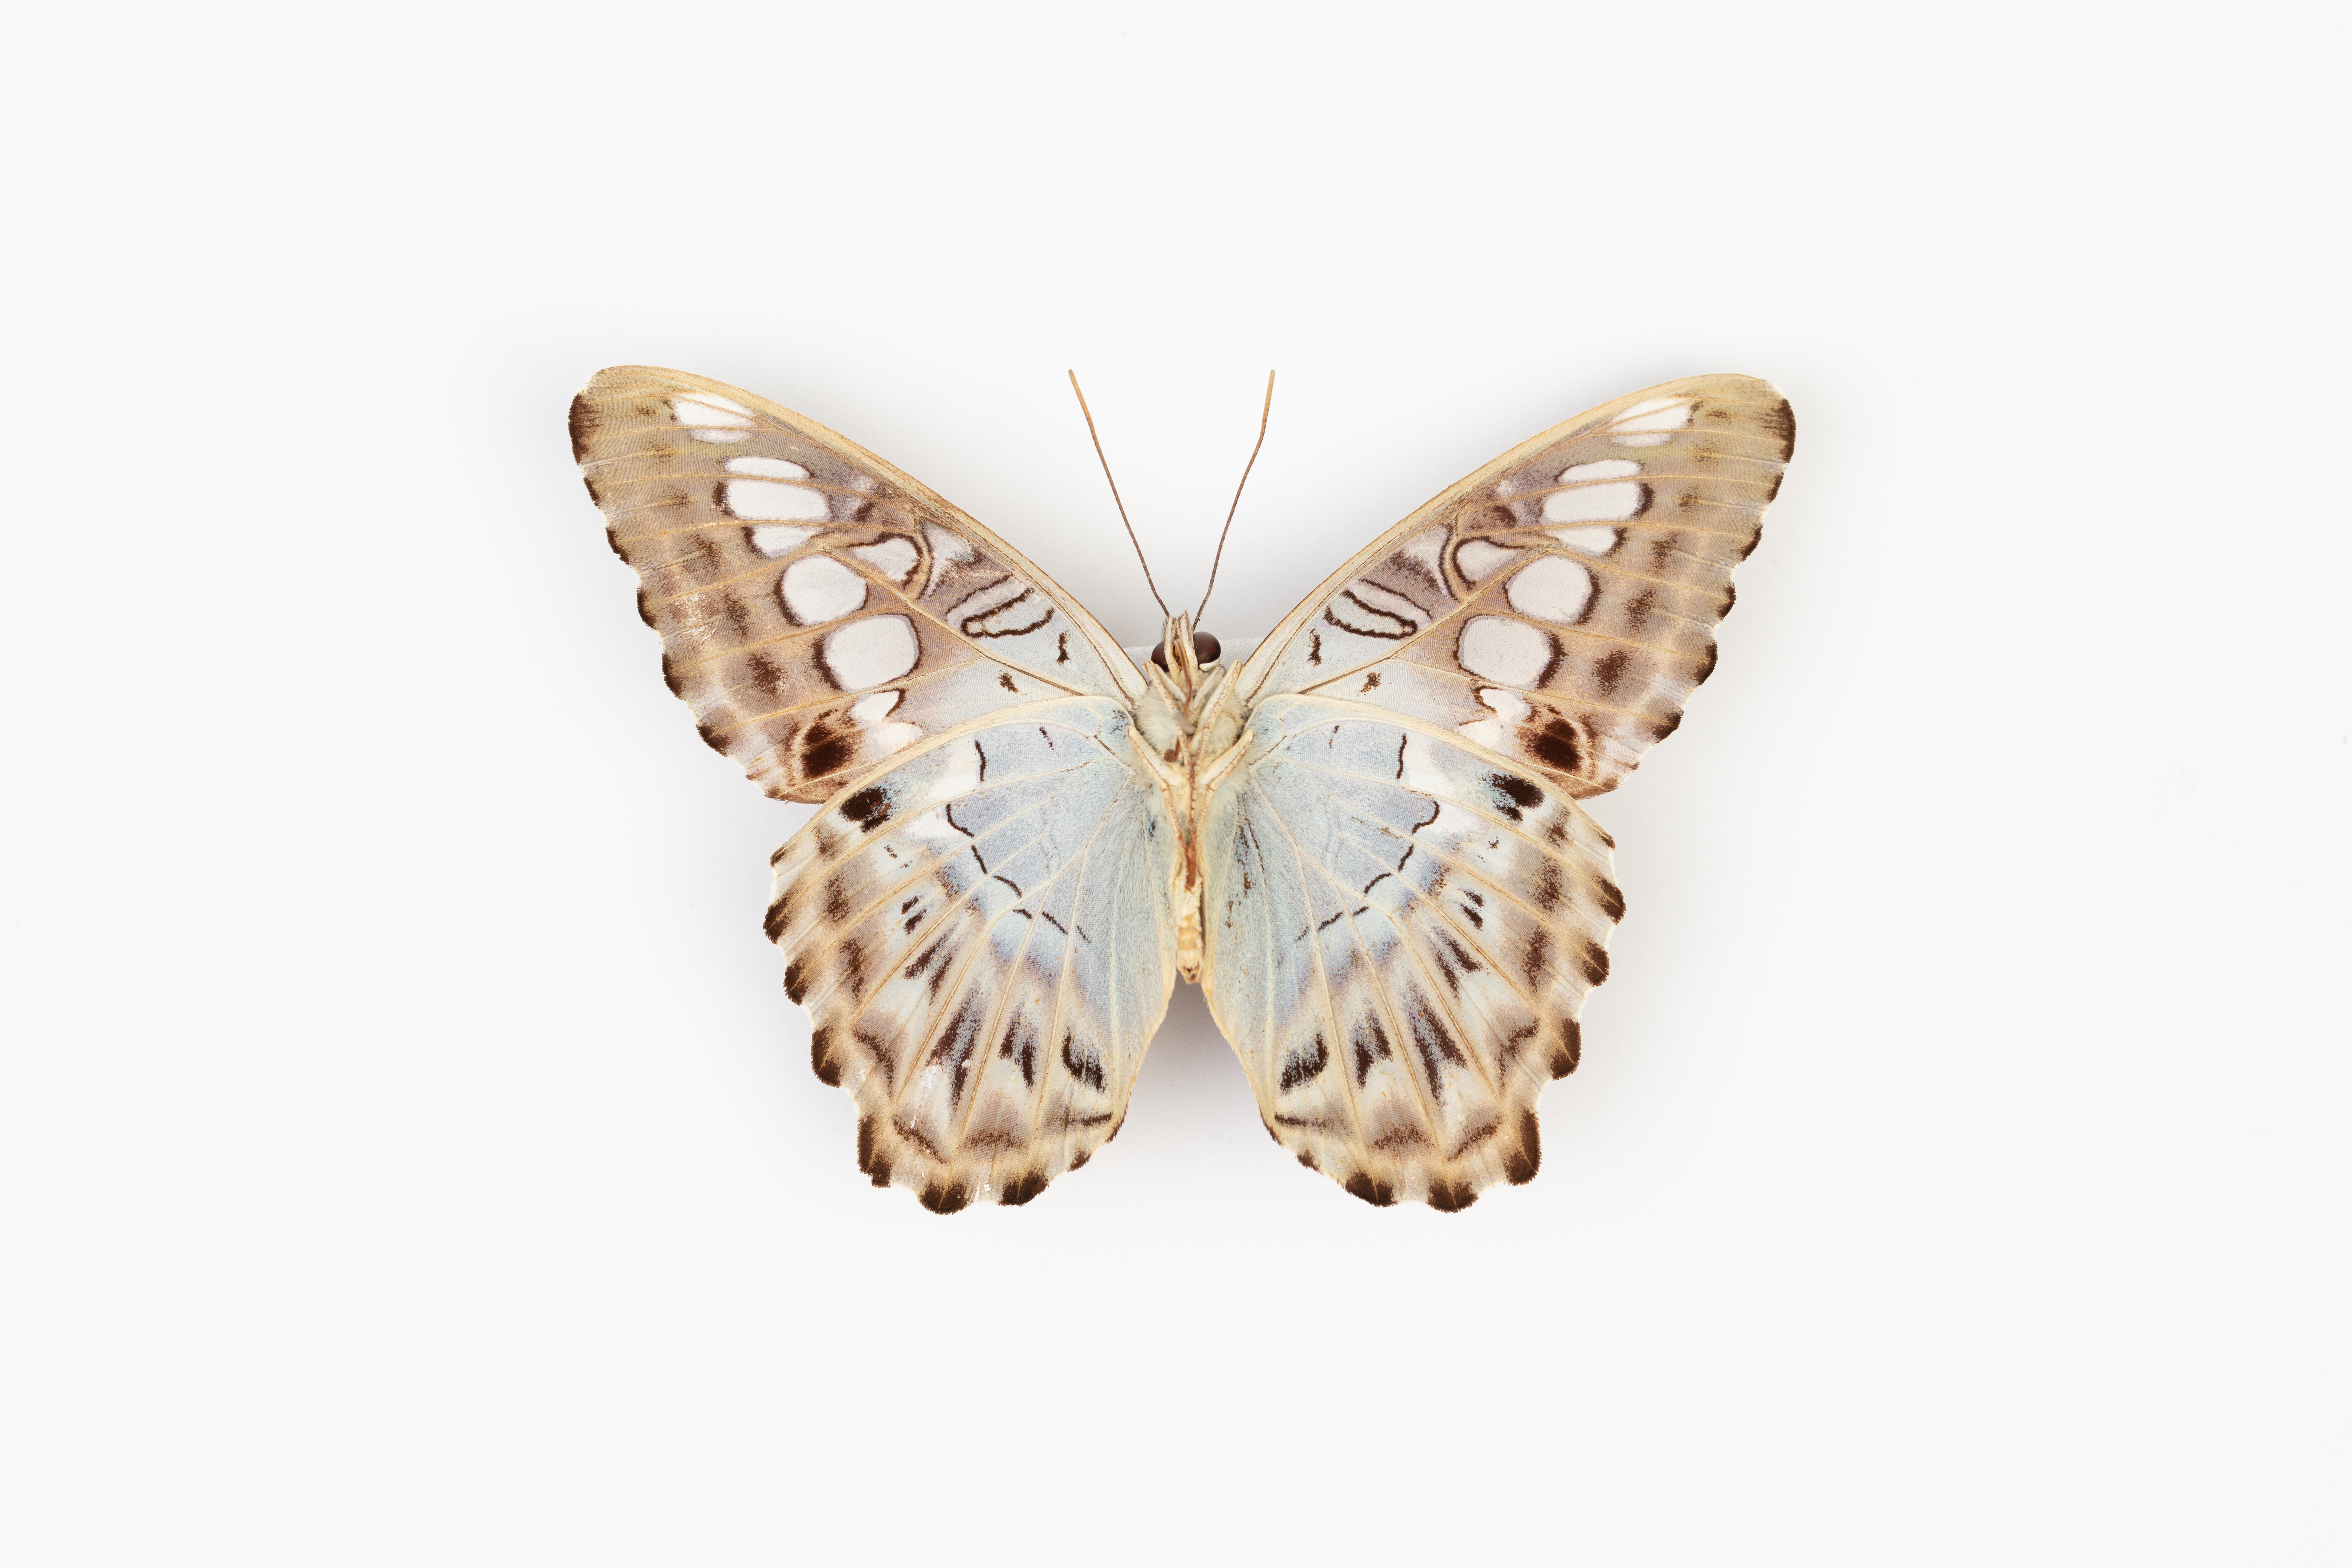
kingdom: Animalia
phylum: Arthropoda
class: Insecta
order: Lepidoptera
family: Nymphalidae
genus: Kallima
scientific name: Kallima sylvia
